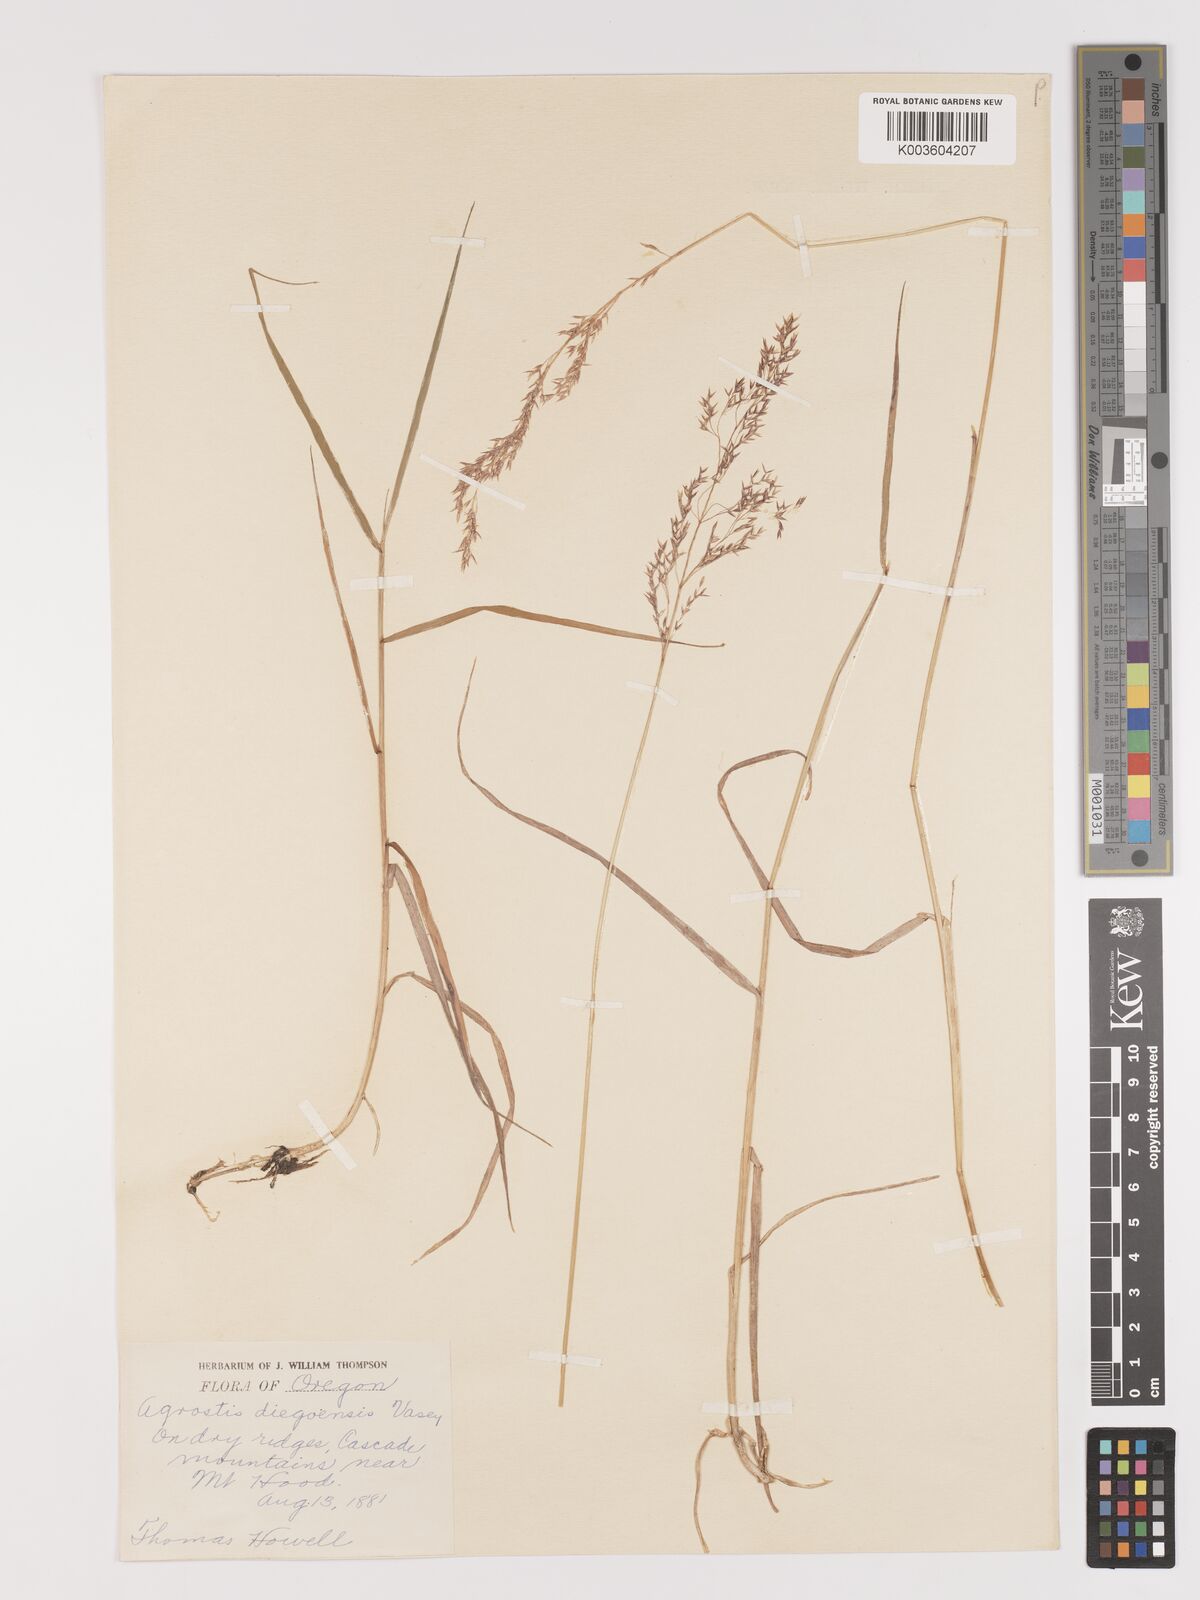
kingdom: Plantae
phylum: Tracheophyta
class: Liliopsida
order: Poales
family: Poaceae
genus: Agrostis
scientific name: Agrostis pallens
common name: Dune bent
